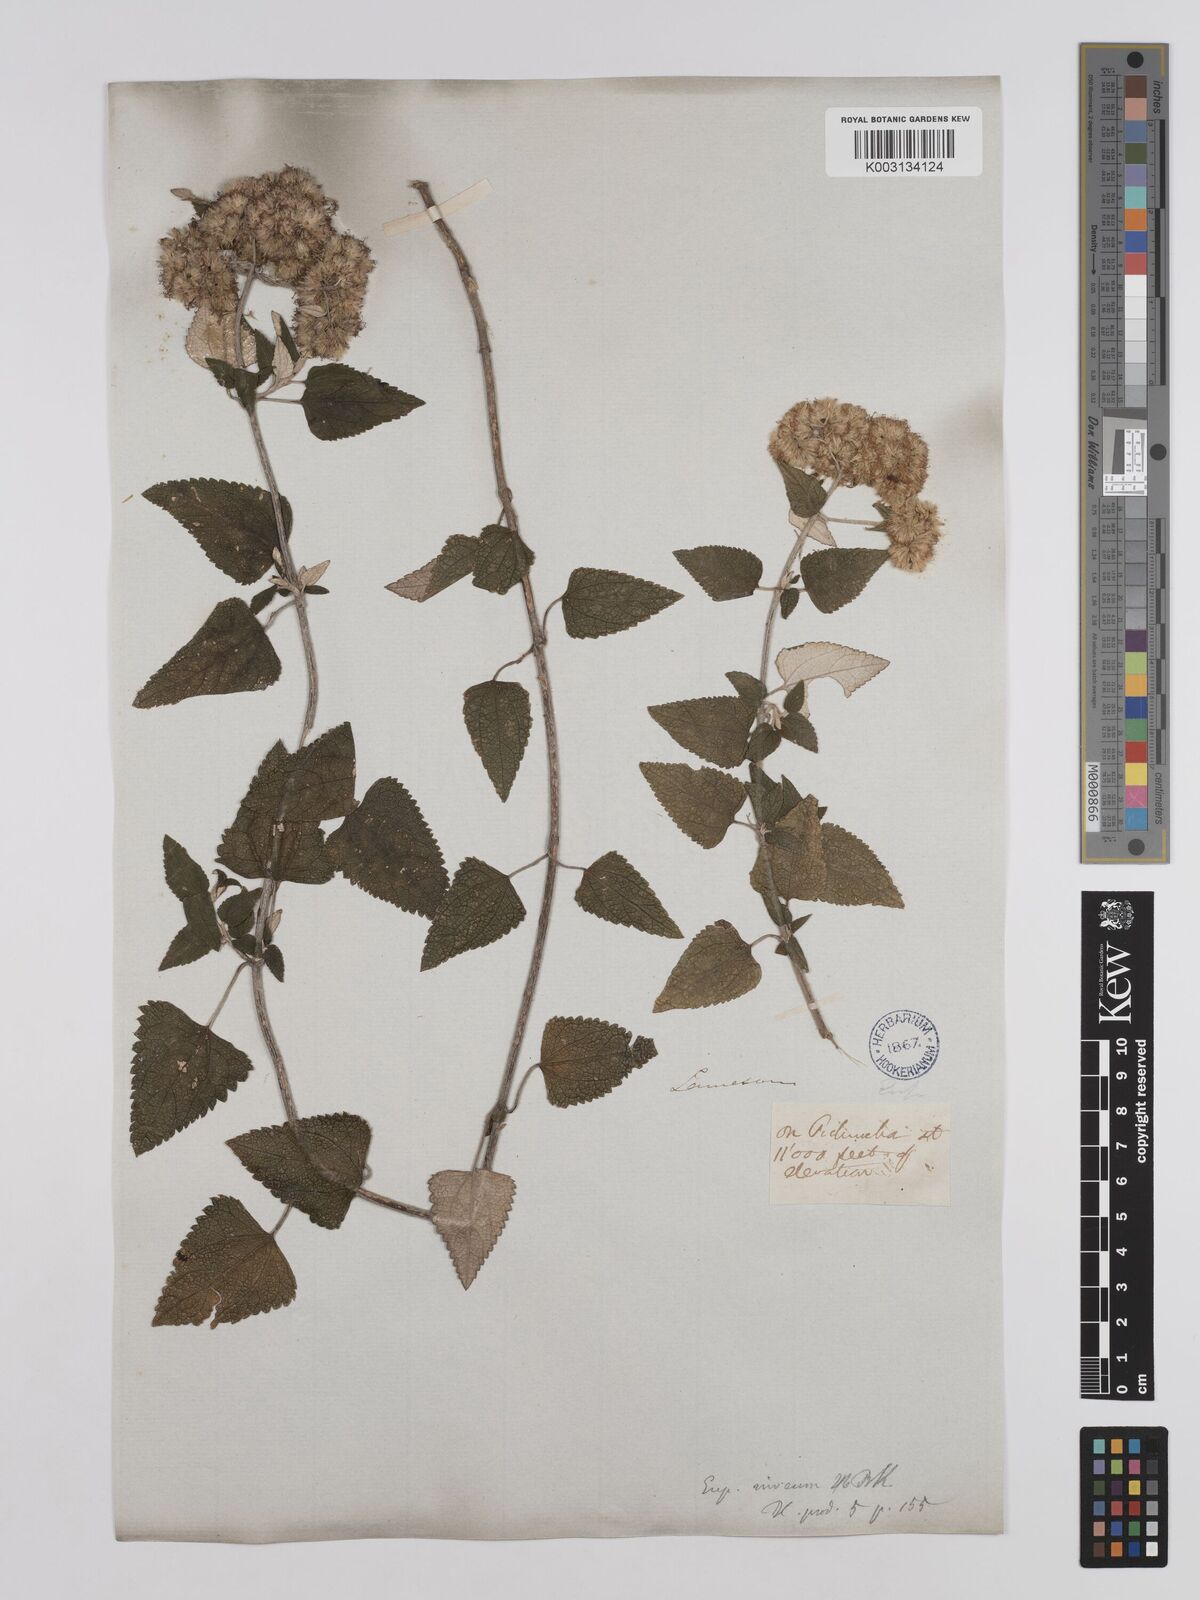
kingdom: Plantae
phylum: Tracheophyta
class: Magnoliopsida
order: Asterales
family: Asteraceae
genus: Cronquistianthus
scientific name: Cronquistianthus leucophyllus
